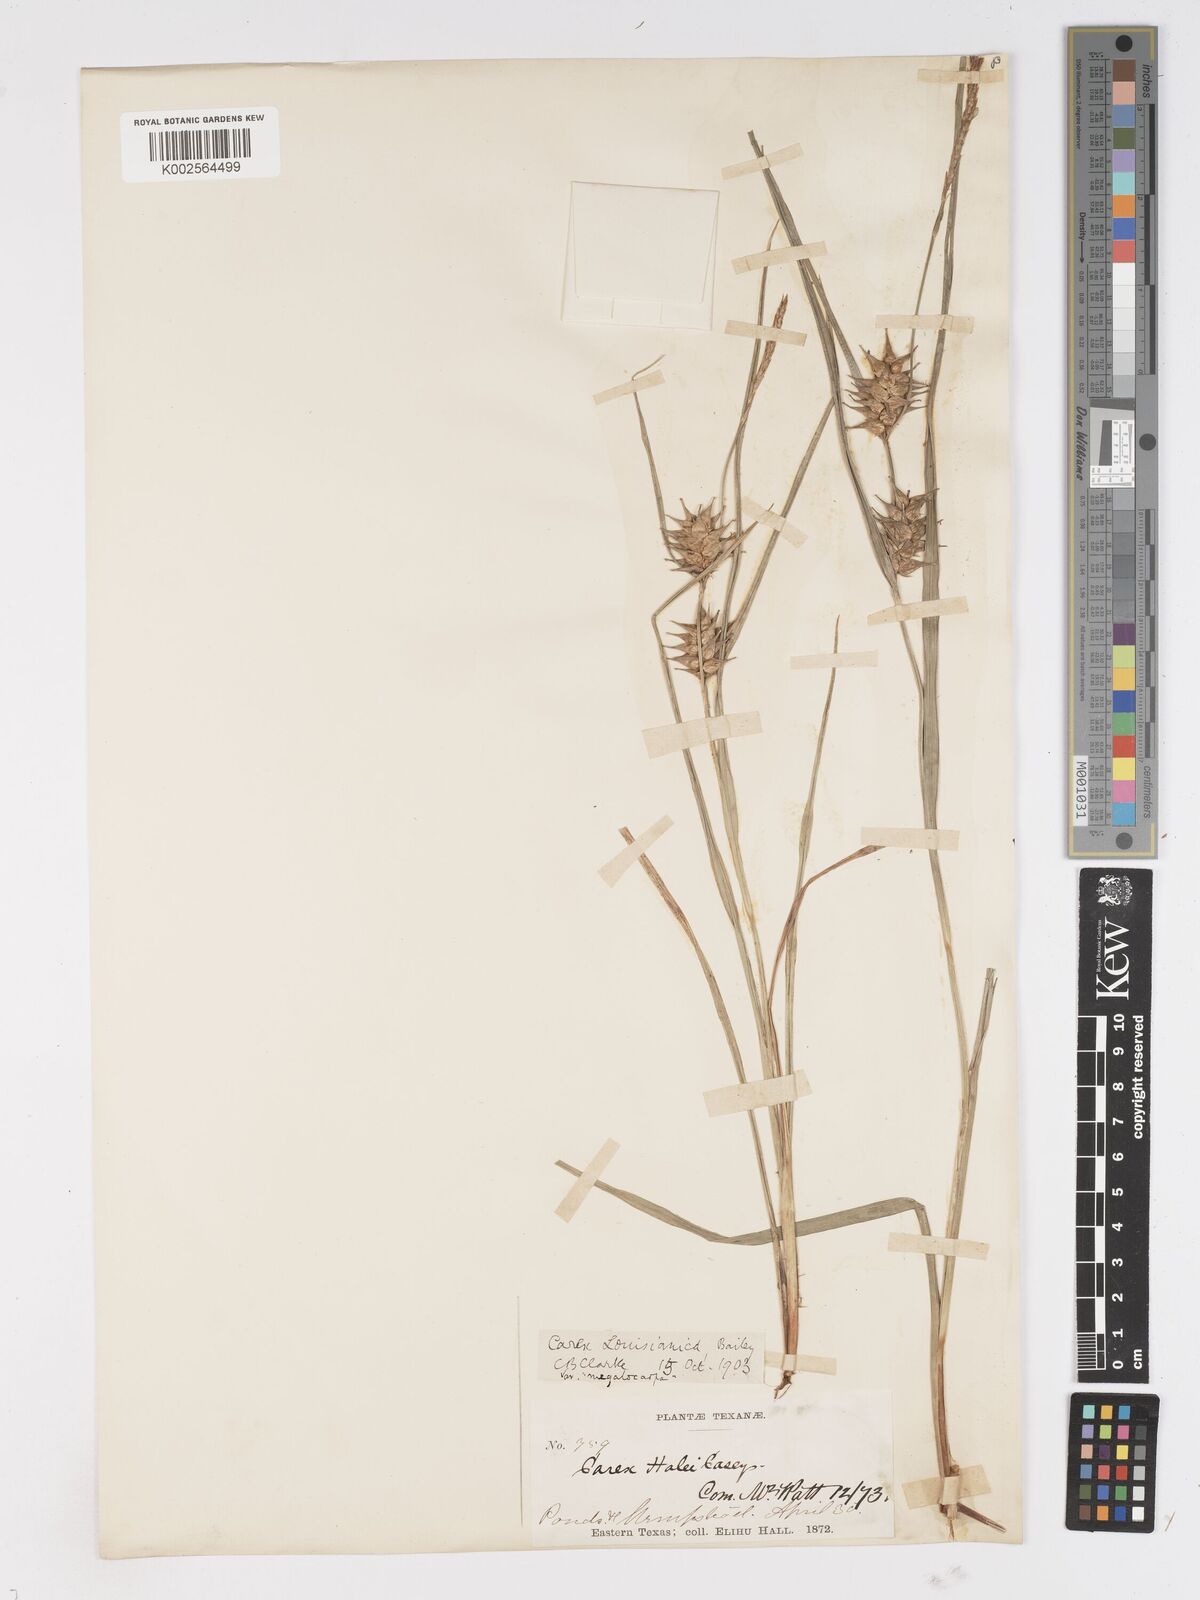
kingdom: Plantae
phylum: Tracheophyta
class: Liliopsida
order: Poales
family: Cyperaceae
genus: Carex
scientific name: Carex louisianica
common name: Louisiana sedge
